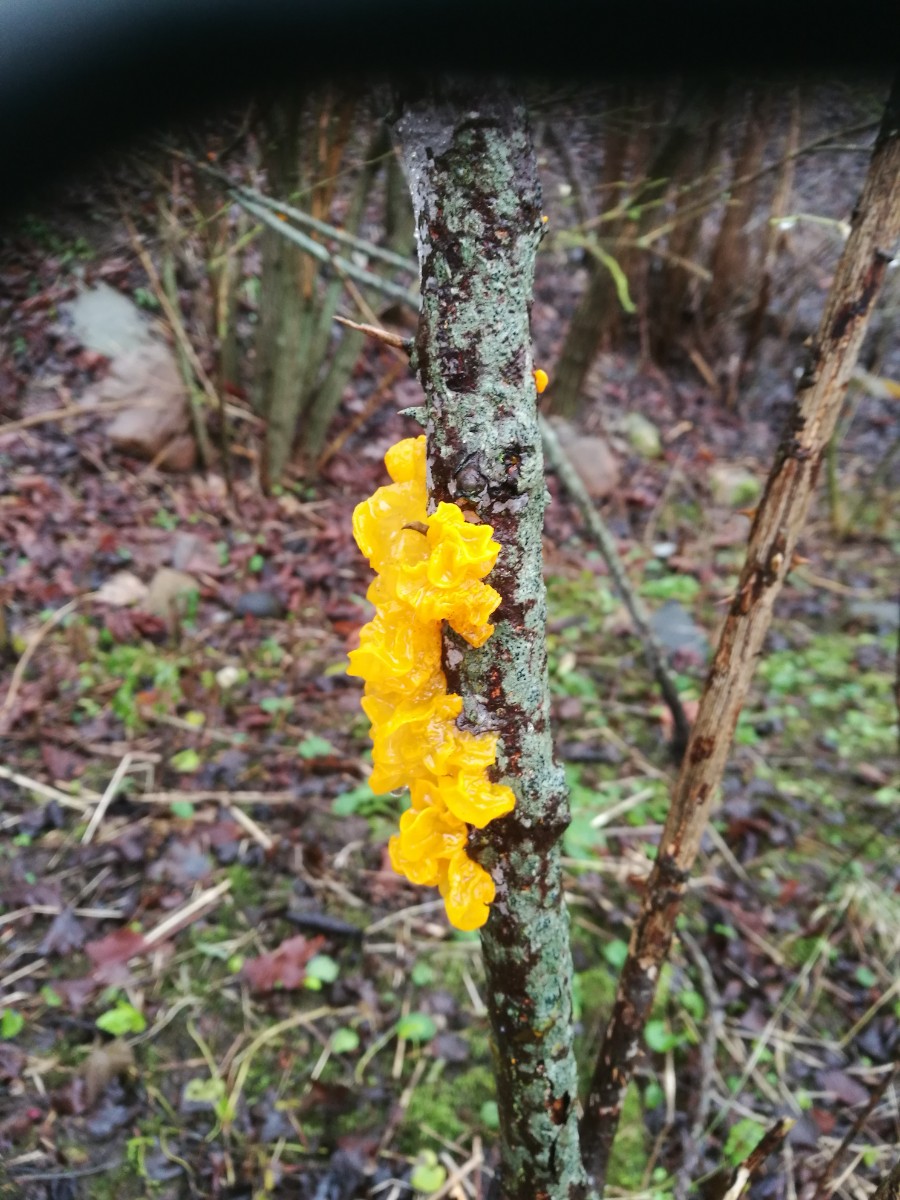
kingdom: Fungi
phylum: Basidiomycota
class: Tremellomycetes
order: Tremellales
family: Tremellaceae
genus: Tremella
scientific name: Tremella mesenterica
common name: gul bævresvamp
